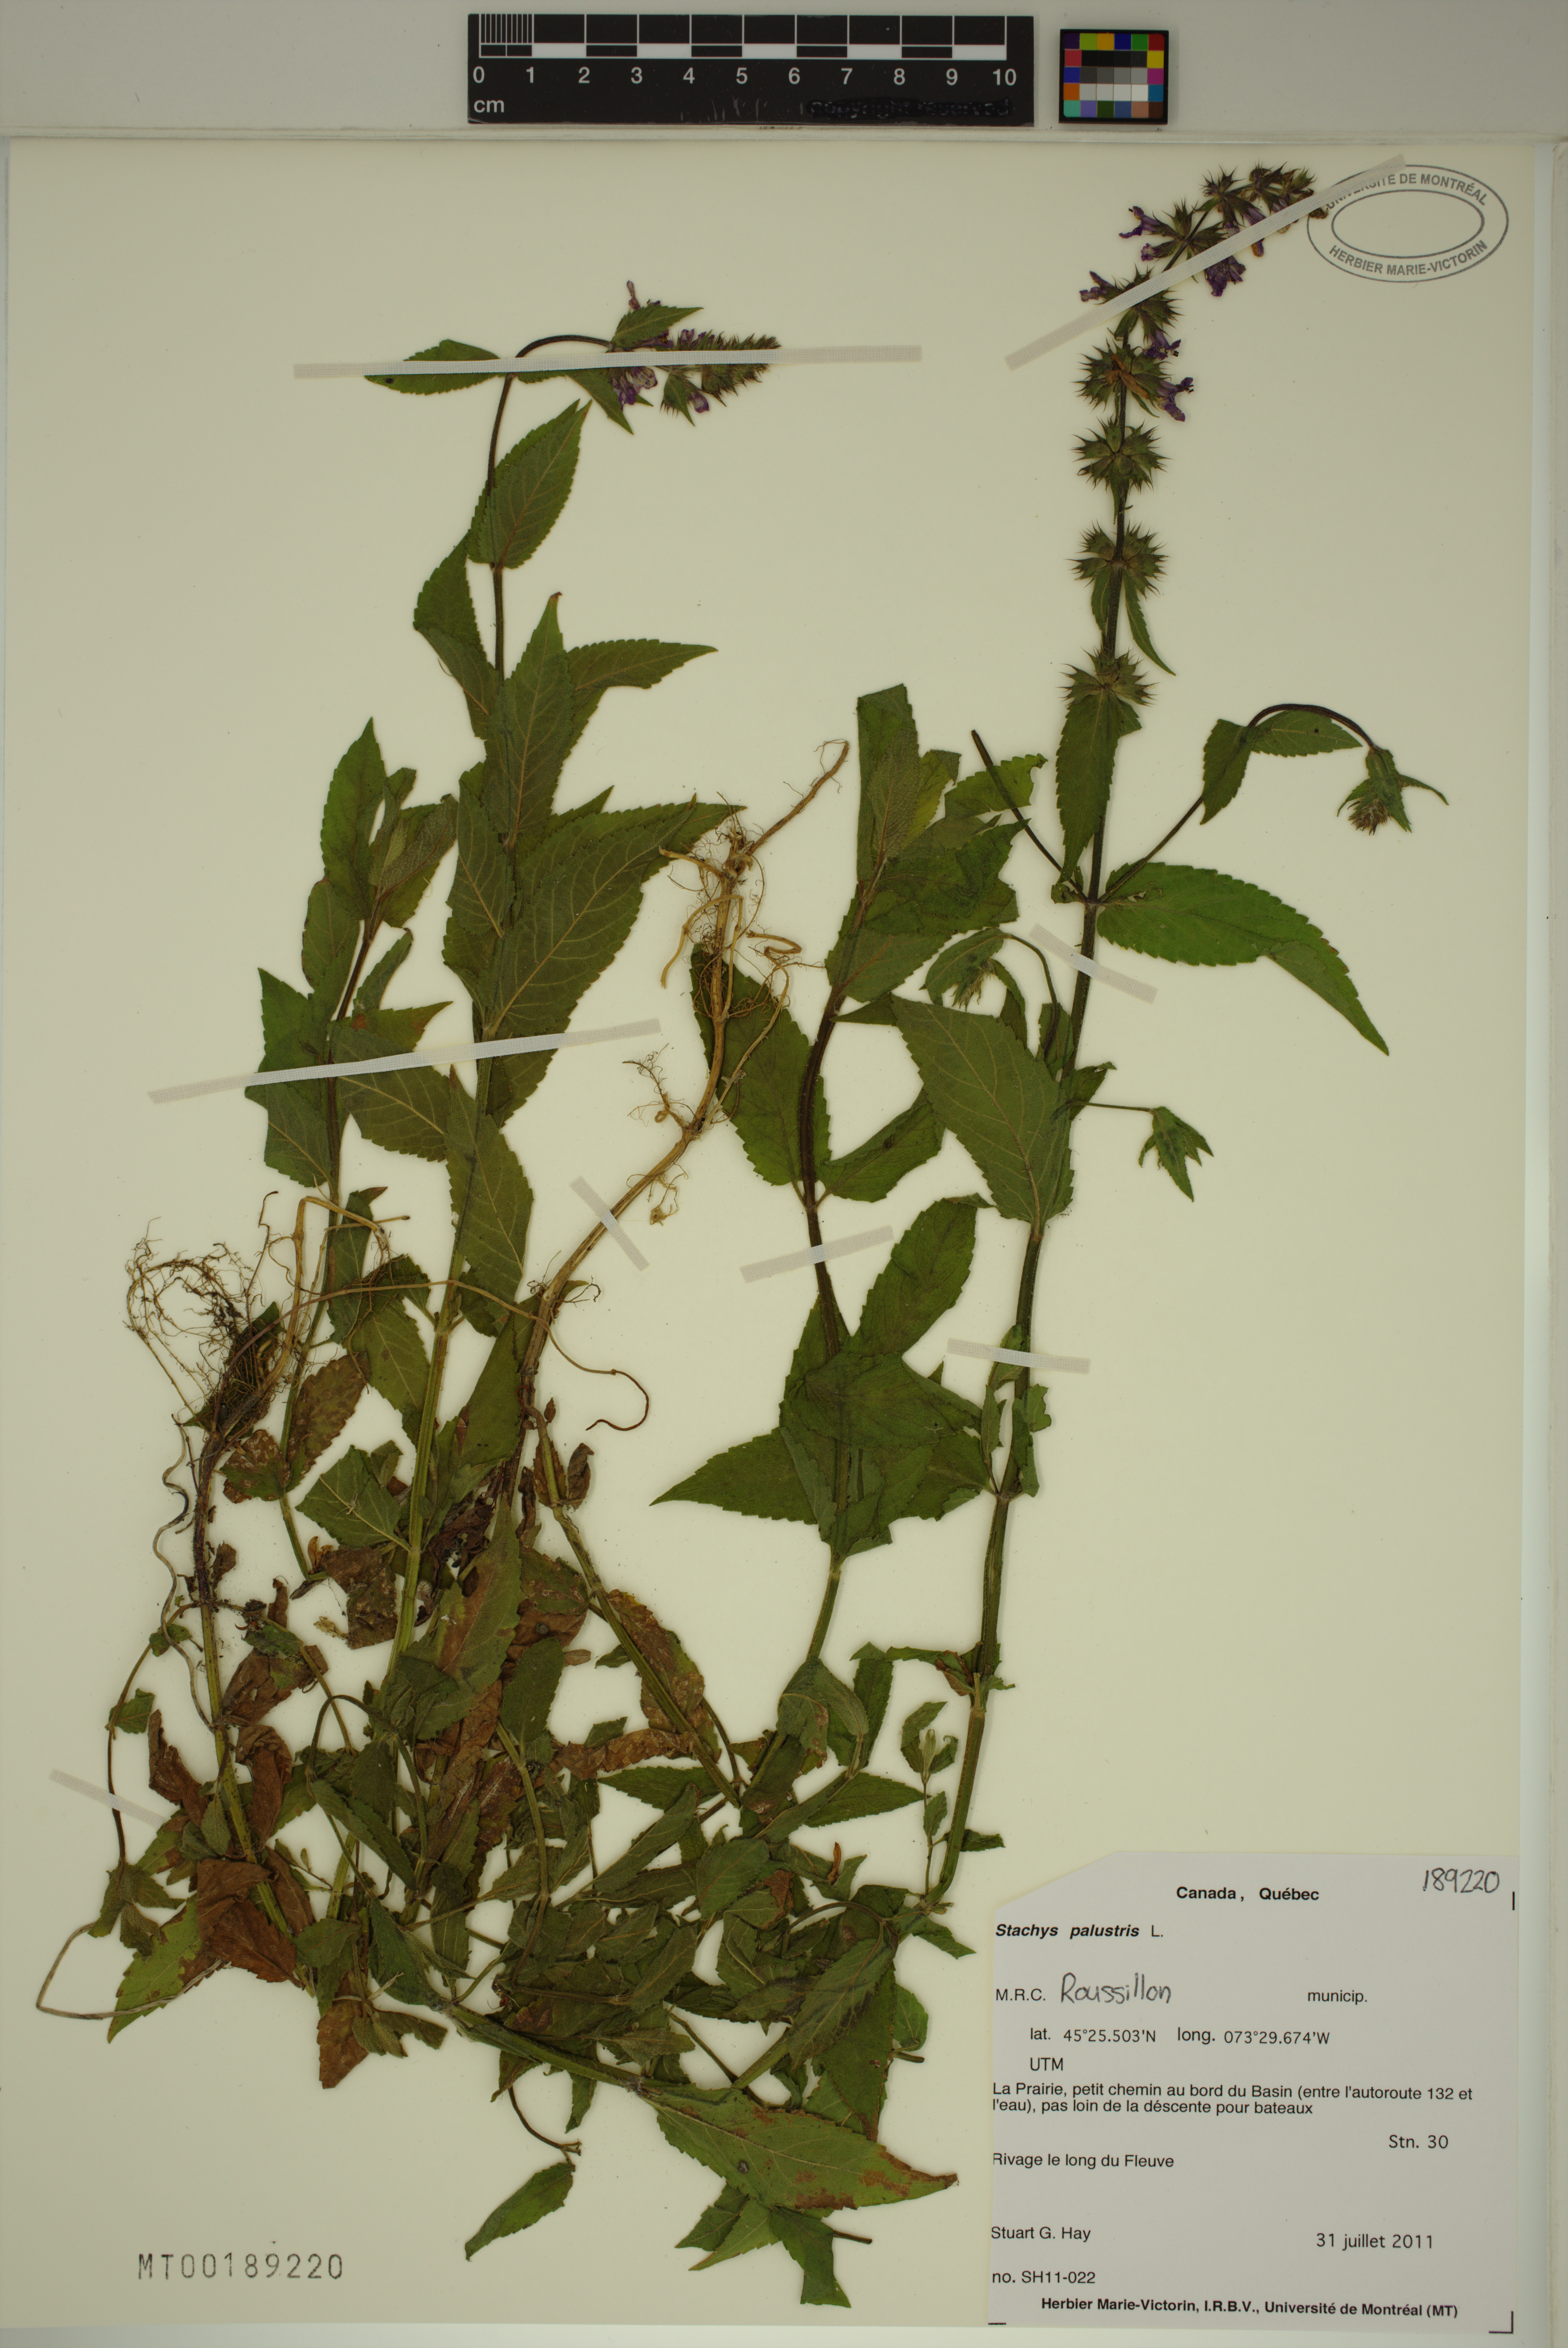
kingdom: Plantae
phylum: Tracheophyta
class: Magnoliopsida
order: Lamiales
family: Lamiaceae
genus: Stachys
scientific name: Stachys palustris
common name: Marsh woundwort
